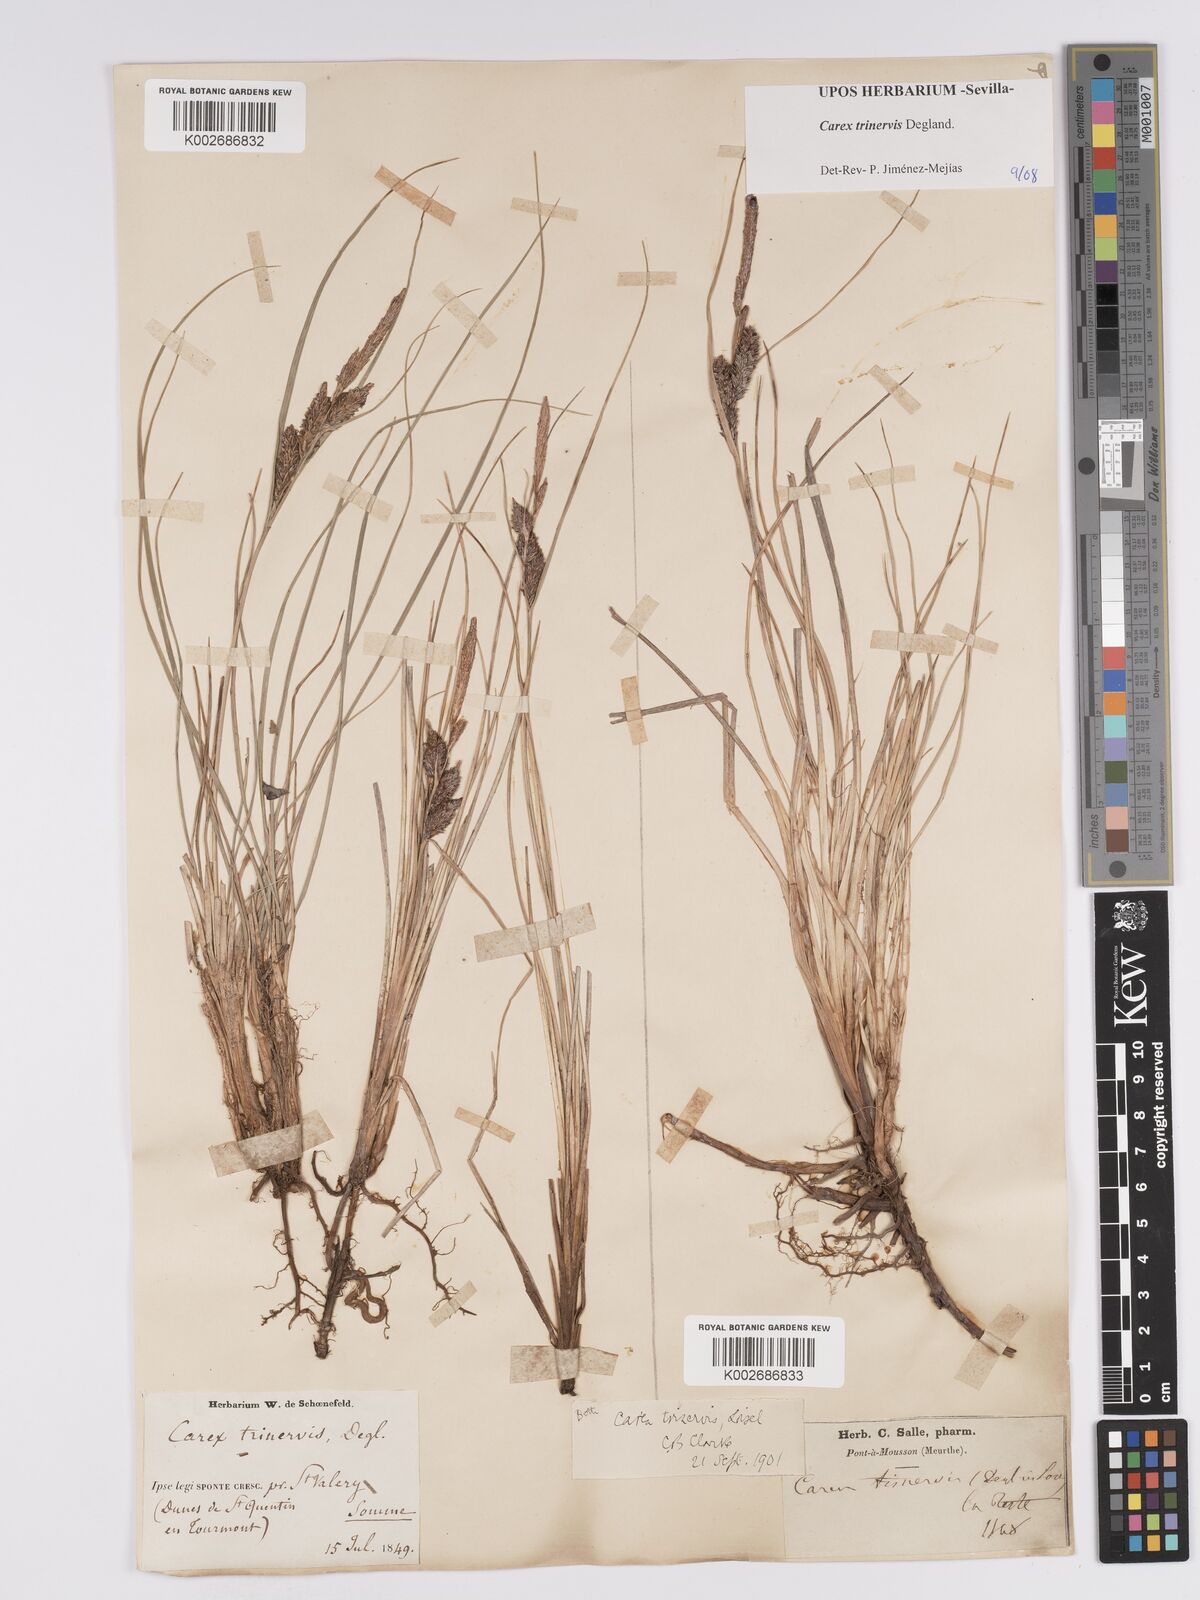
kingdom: Plantae
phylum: Tracheophyta
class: Liliopsida
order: Poales
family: Cyperaceae
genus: Carex
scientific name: Carex trinervis
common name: Three-nerved sedge
